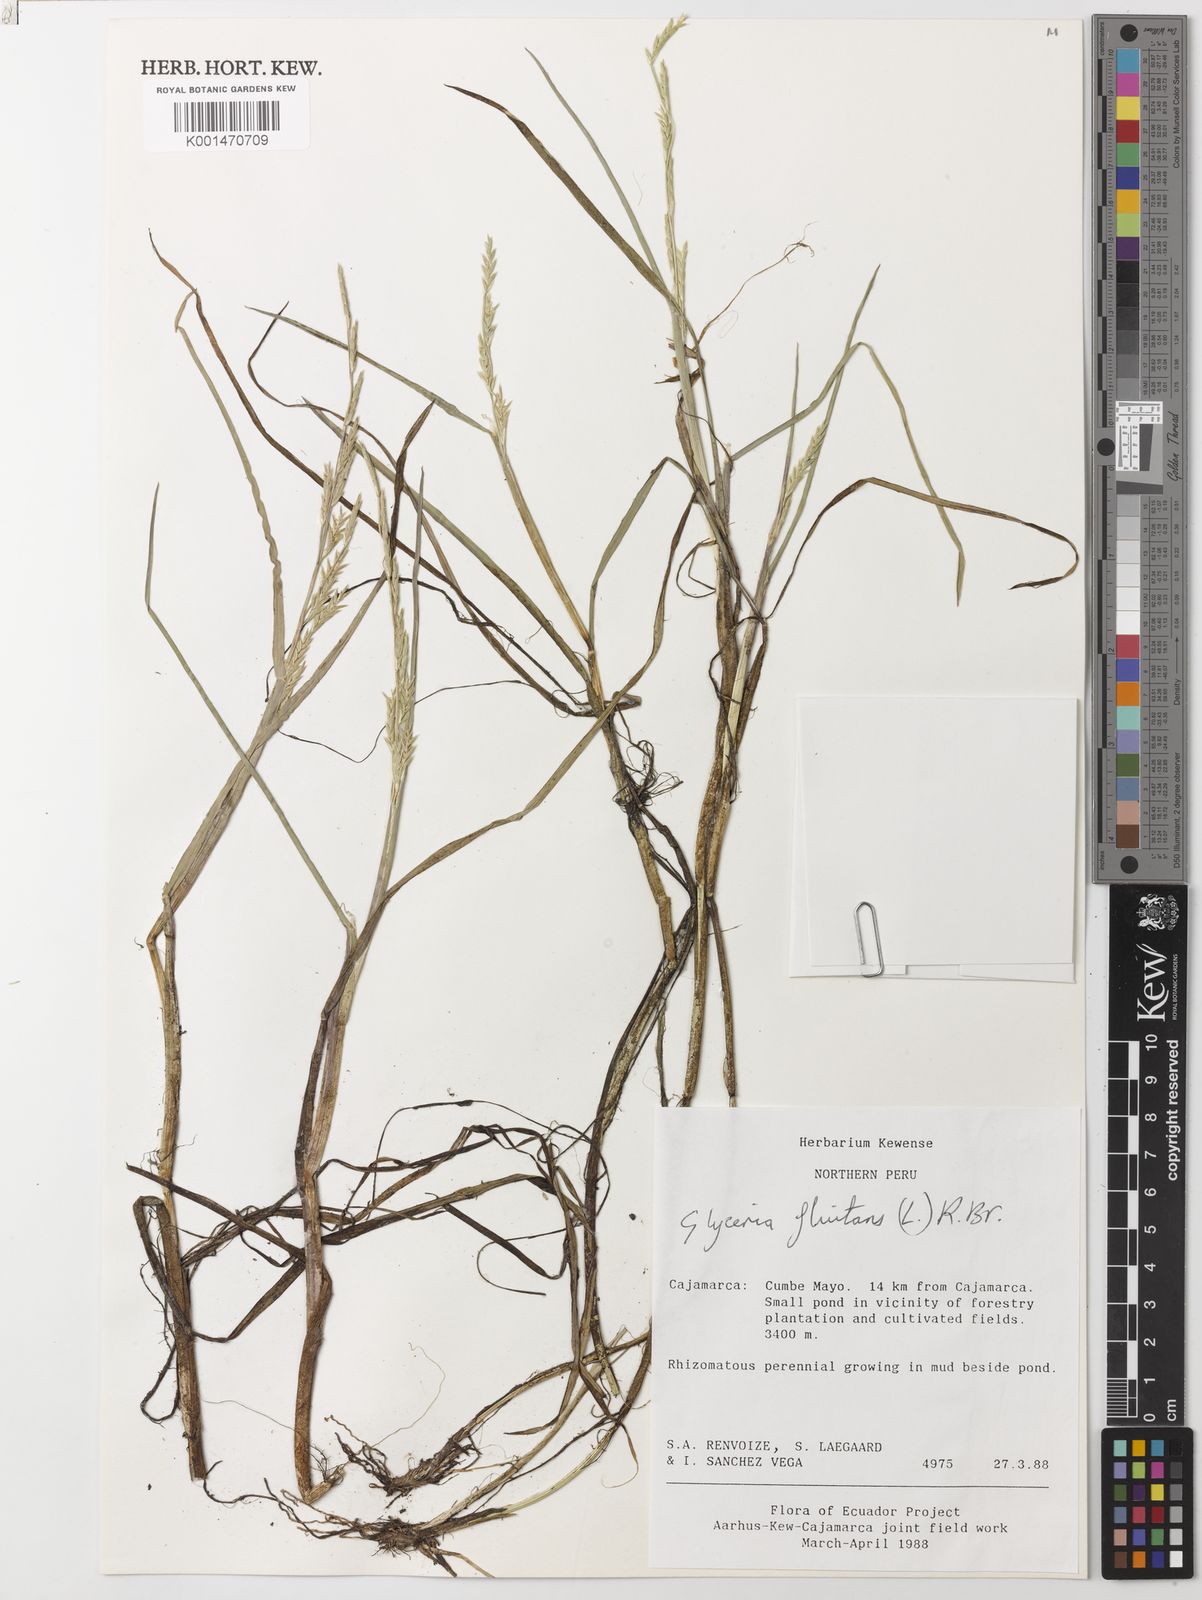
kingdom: Plantae
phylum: Tracheophyta
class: Liliopsida
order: Poales
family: Poaceae
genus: Glyceria
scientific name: Glyceria fluitans
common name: Floating sweet-grass
